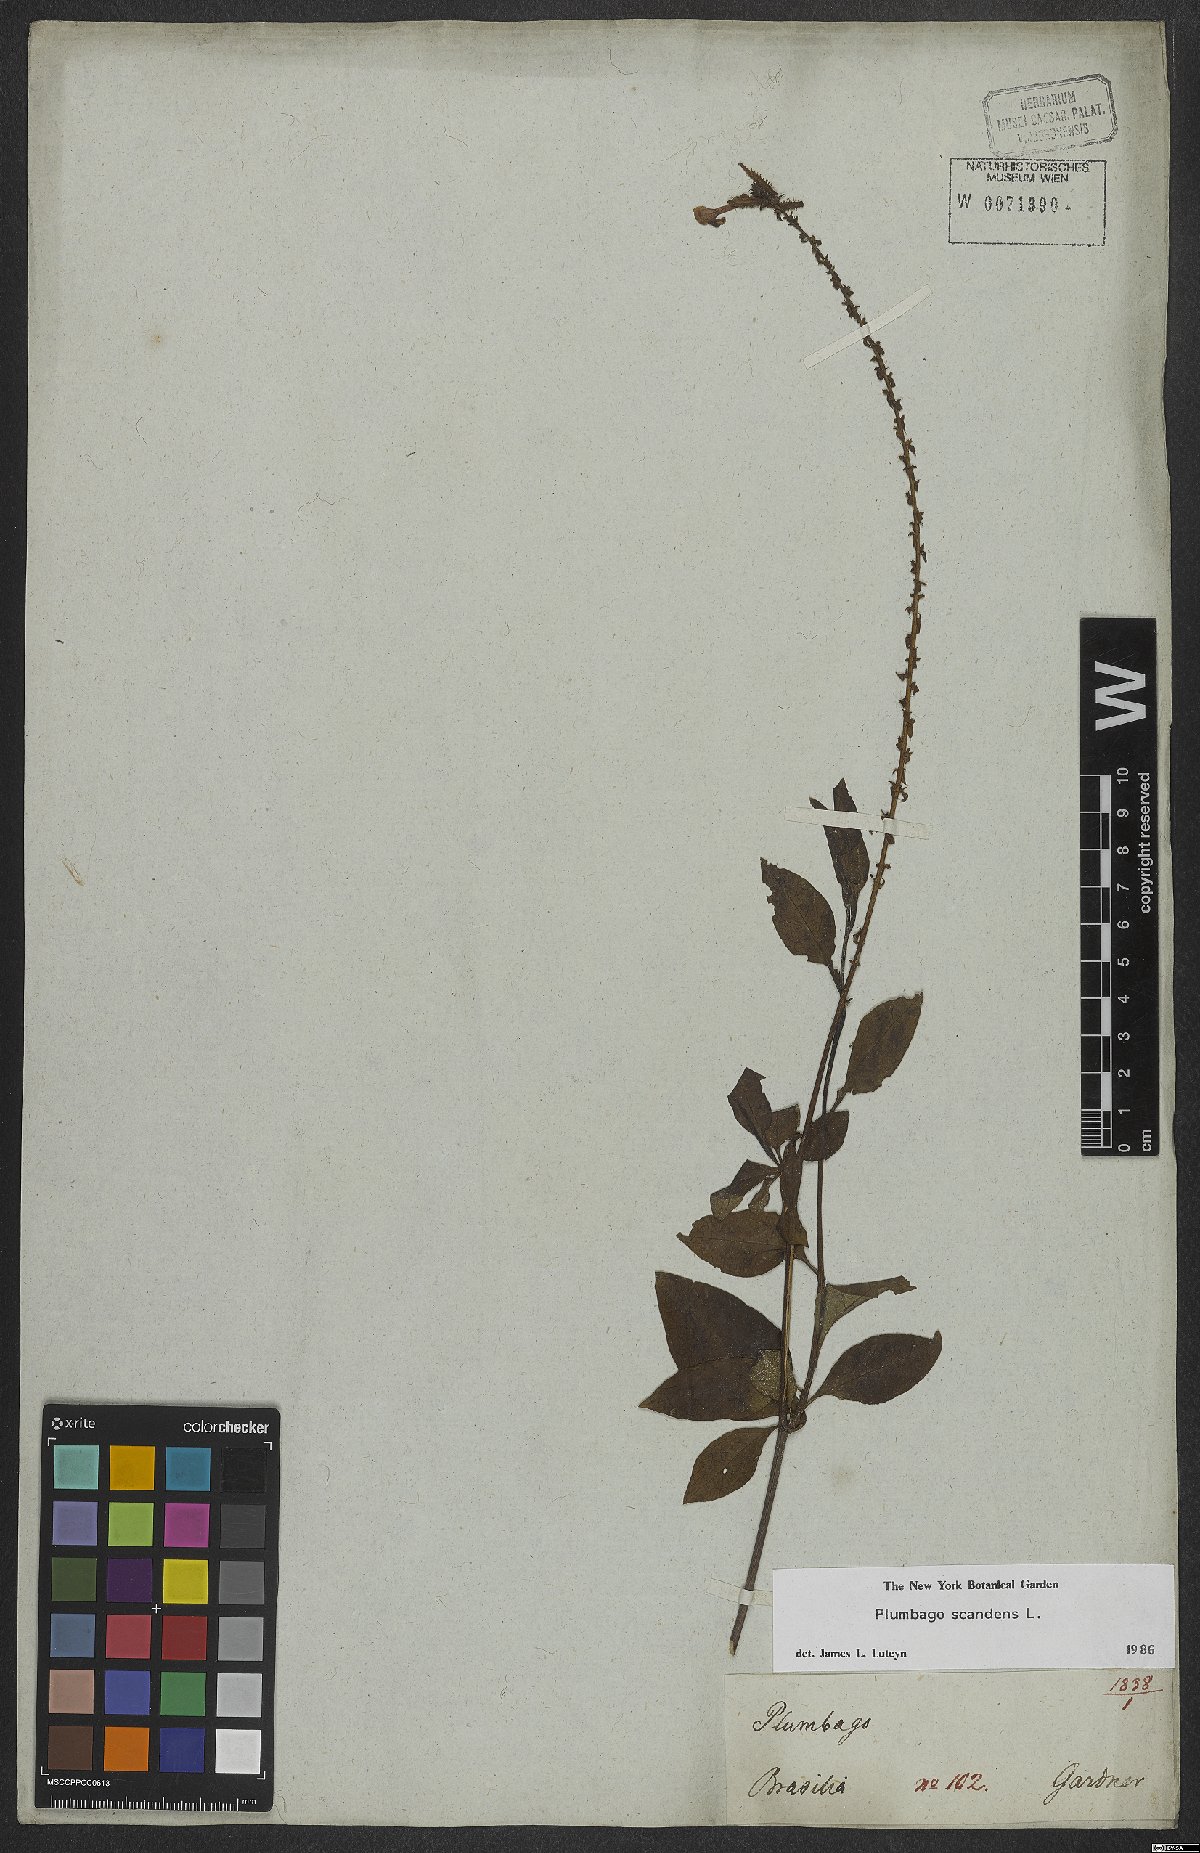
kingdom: Plantae
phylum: Tracheophyta
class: Magnoliopsida
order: Caryophyllales
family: Plumbaginaceae
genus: Plumbago
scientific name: Plumbago zeylanica
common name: Doctorbush
